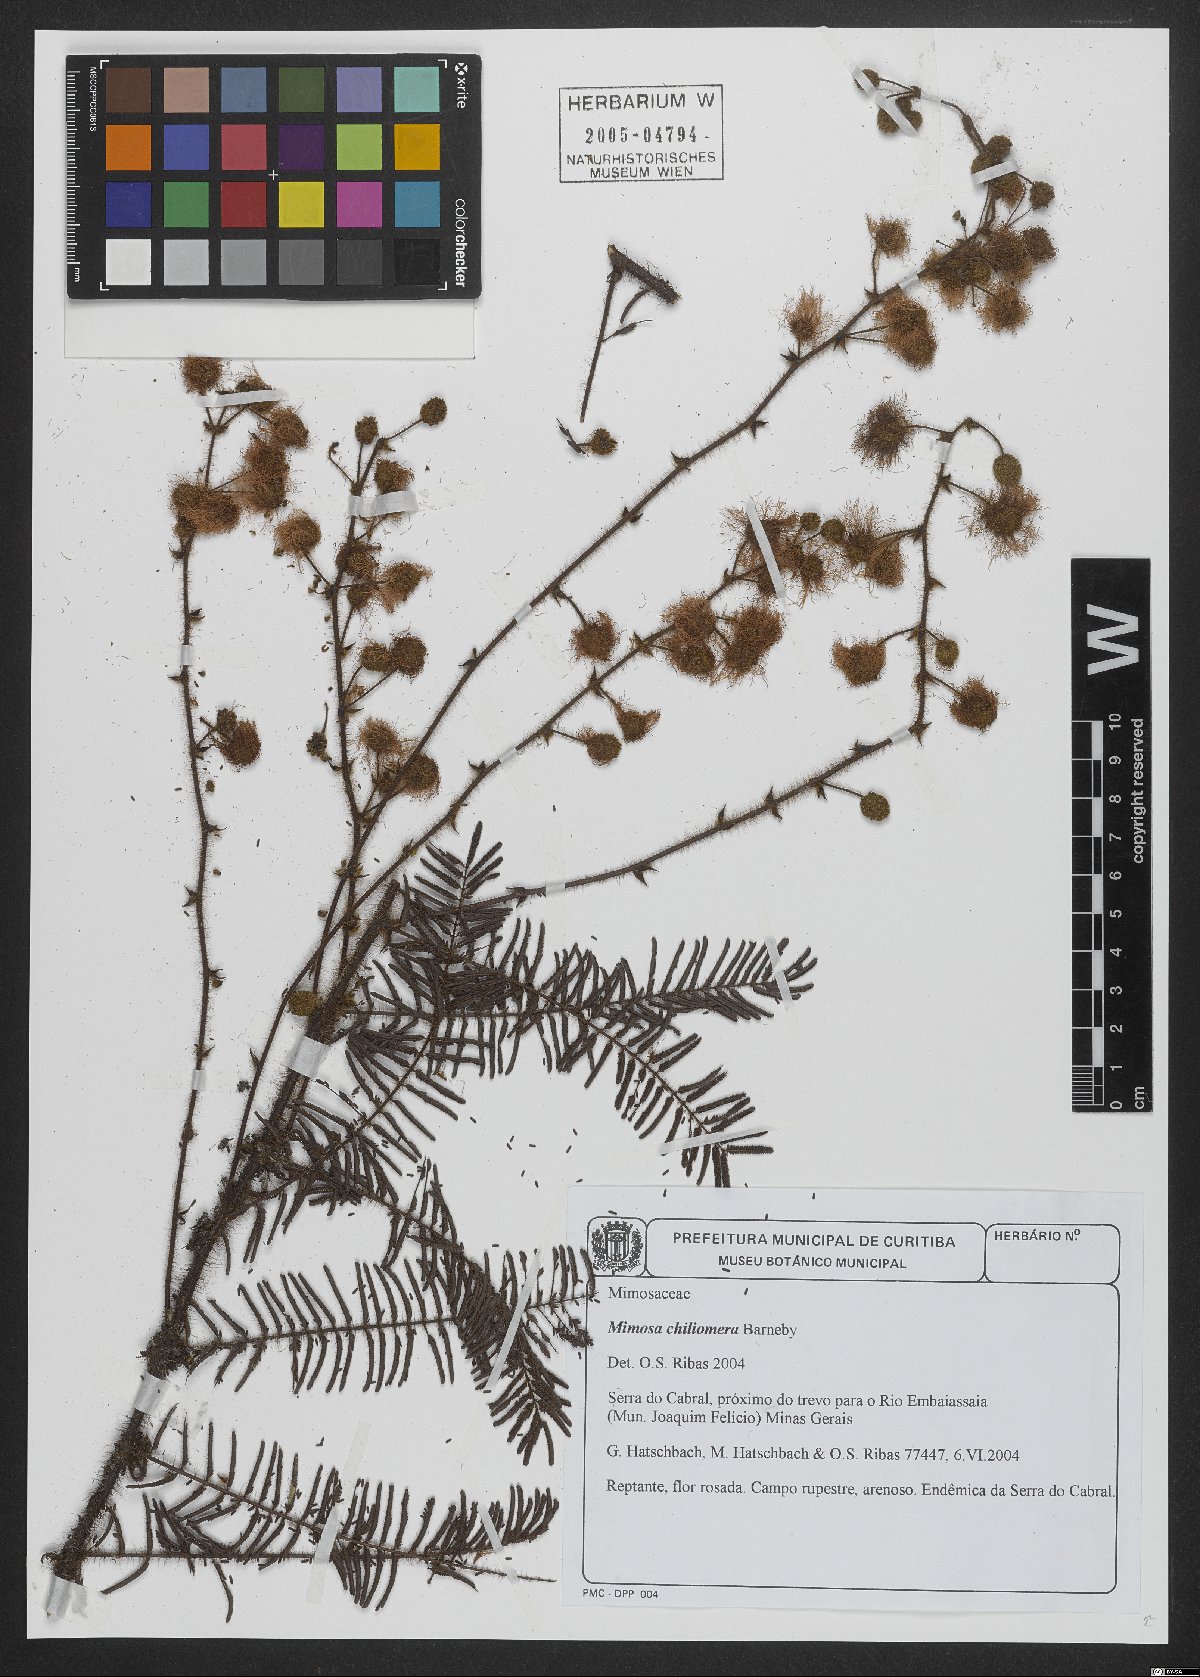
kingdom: Plantae
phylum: Tracheophyta
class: Magnoliopsida
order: Fabales
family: Fabaceae
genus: Mimosa
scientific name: Mimosa chiliomera
